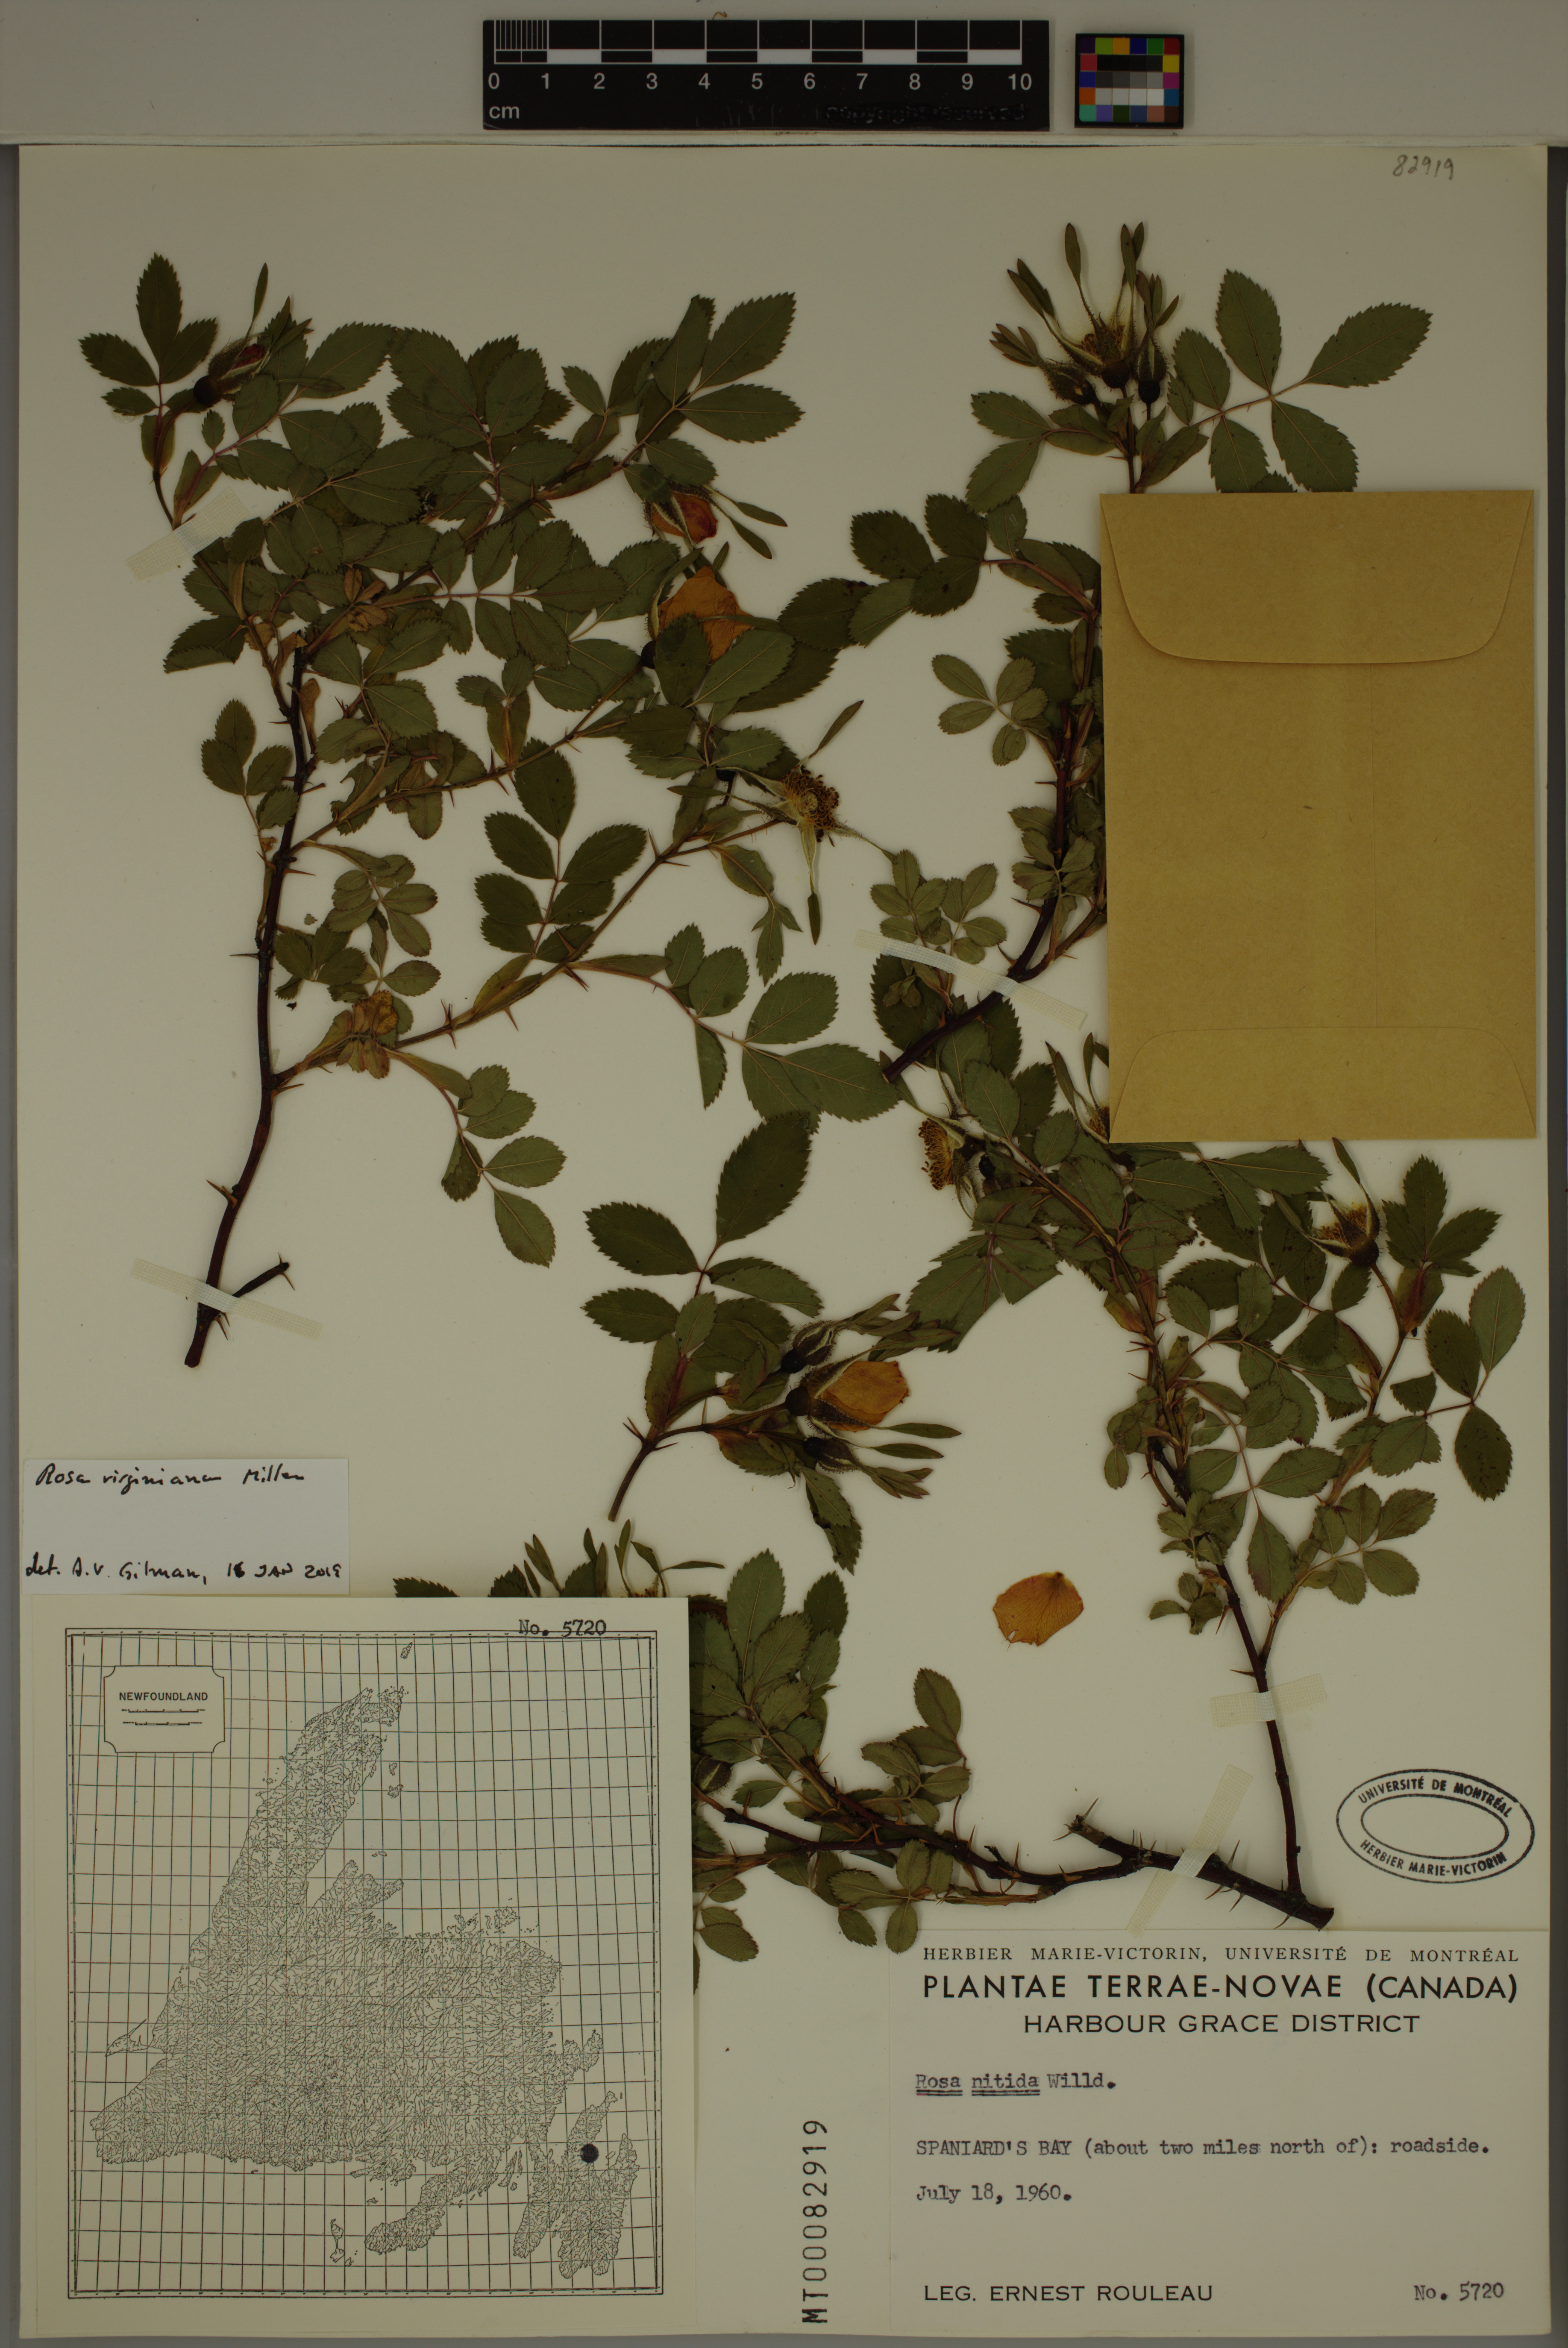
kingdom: Plantae
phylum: Tracheophyta
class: Magnoliopsida
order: Rosales
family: Rosaceae
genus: Rosa
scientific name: Rosa carolina
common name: Pasture rose
